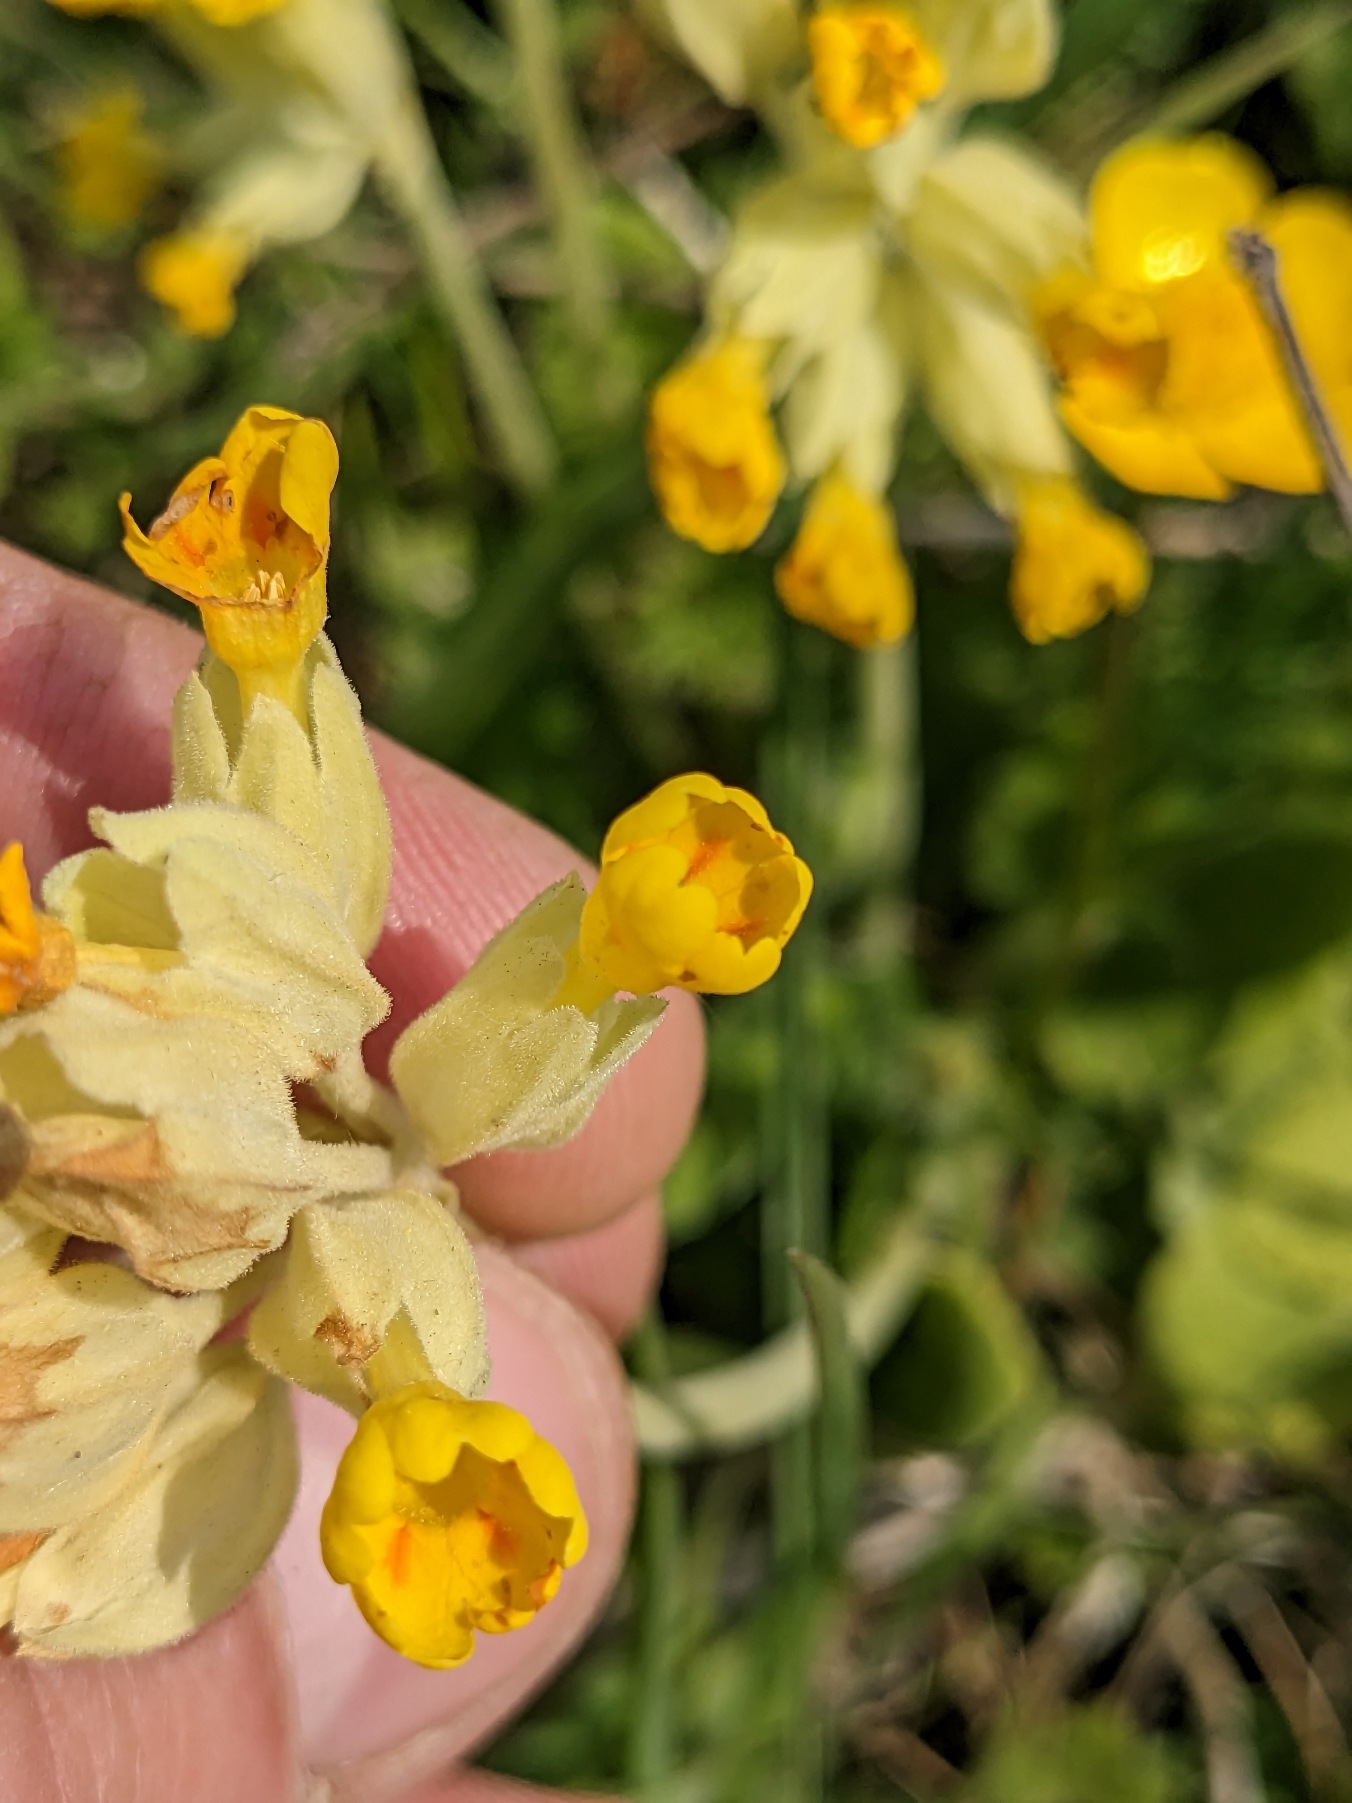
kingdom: Plantae
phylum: Tracheophyta
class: Magnoliopsida
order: Ericales
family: Primulaceae
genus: Primula
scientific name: Primula veris
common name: Hulkravet kodriver
